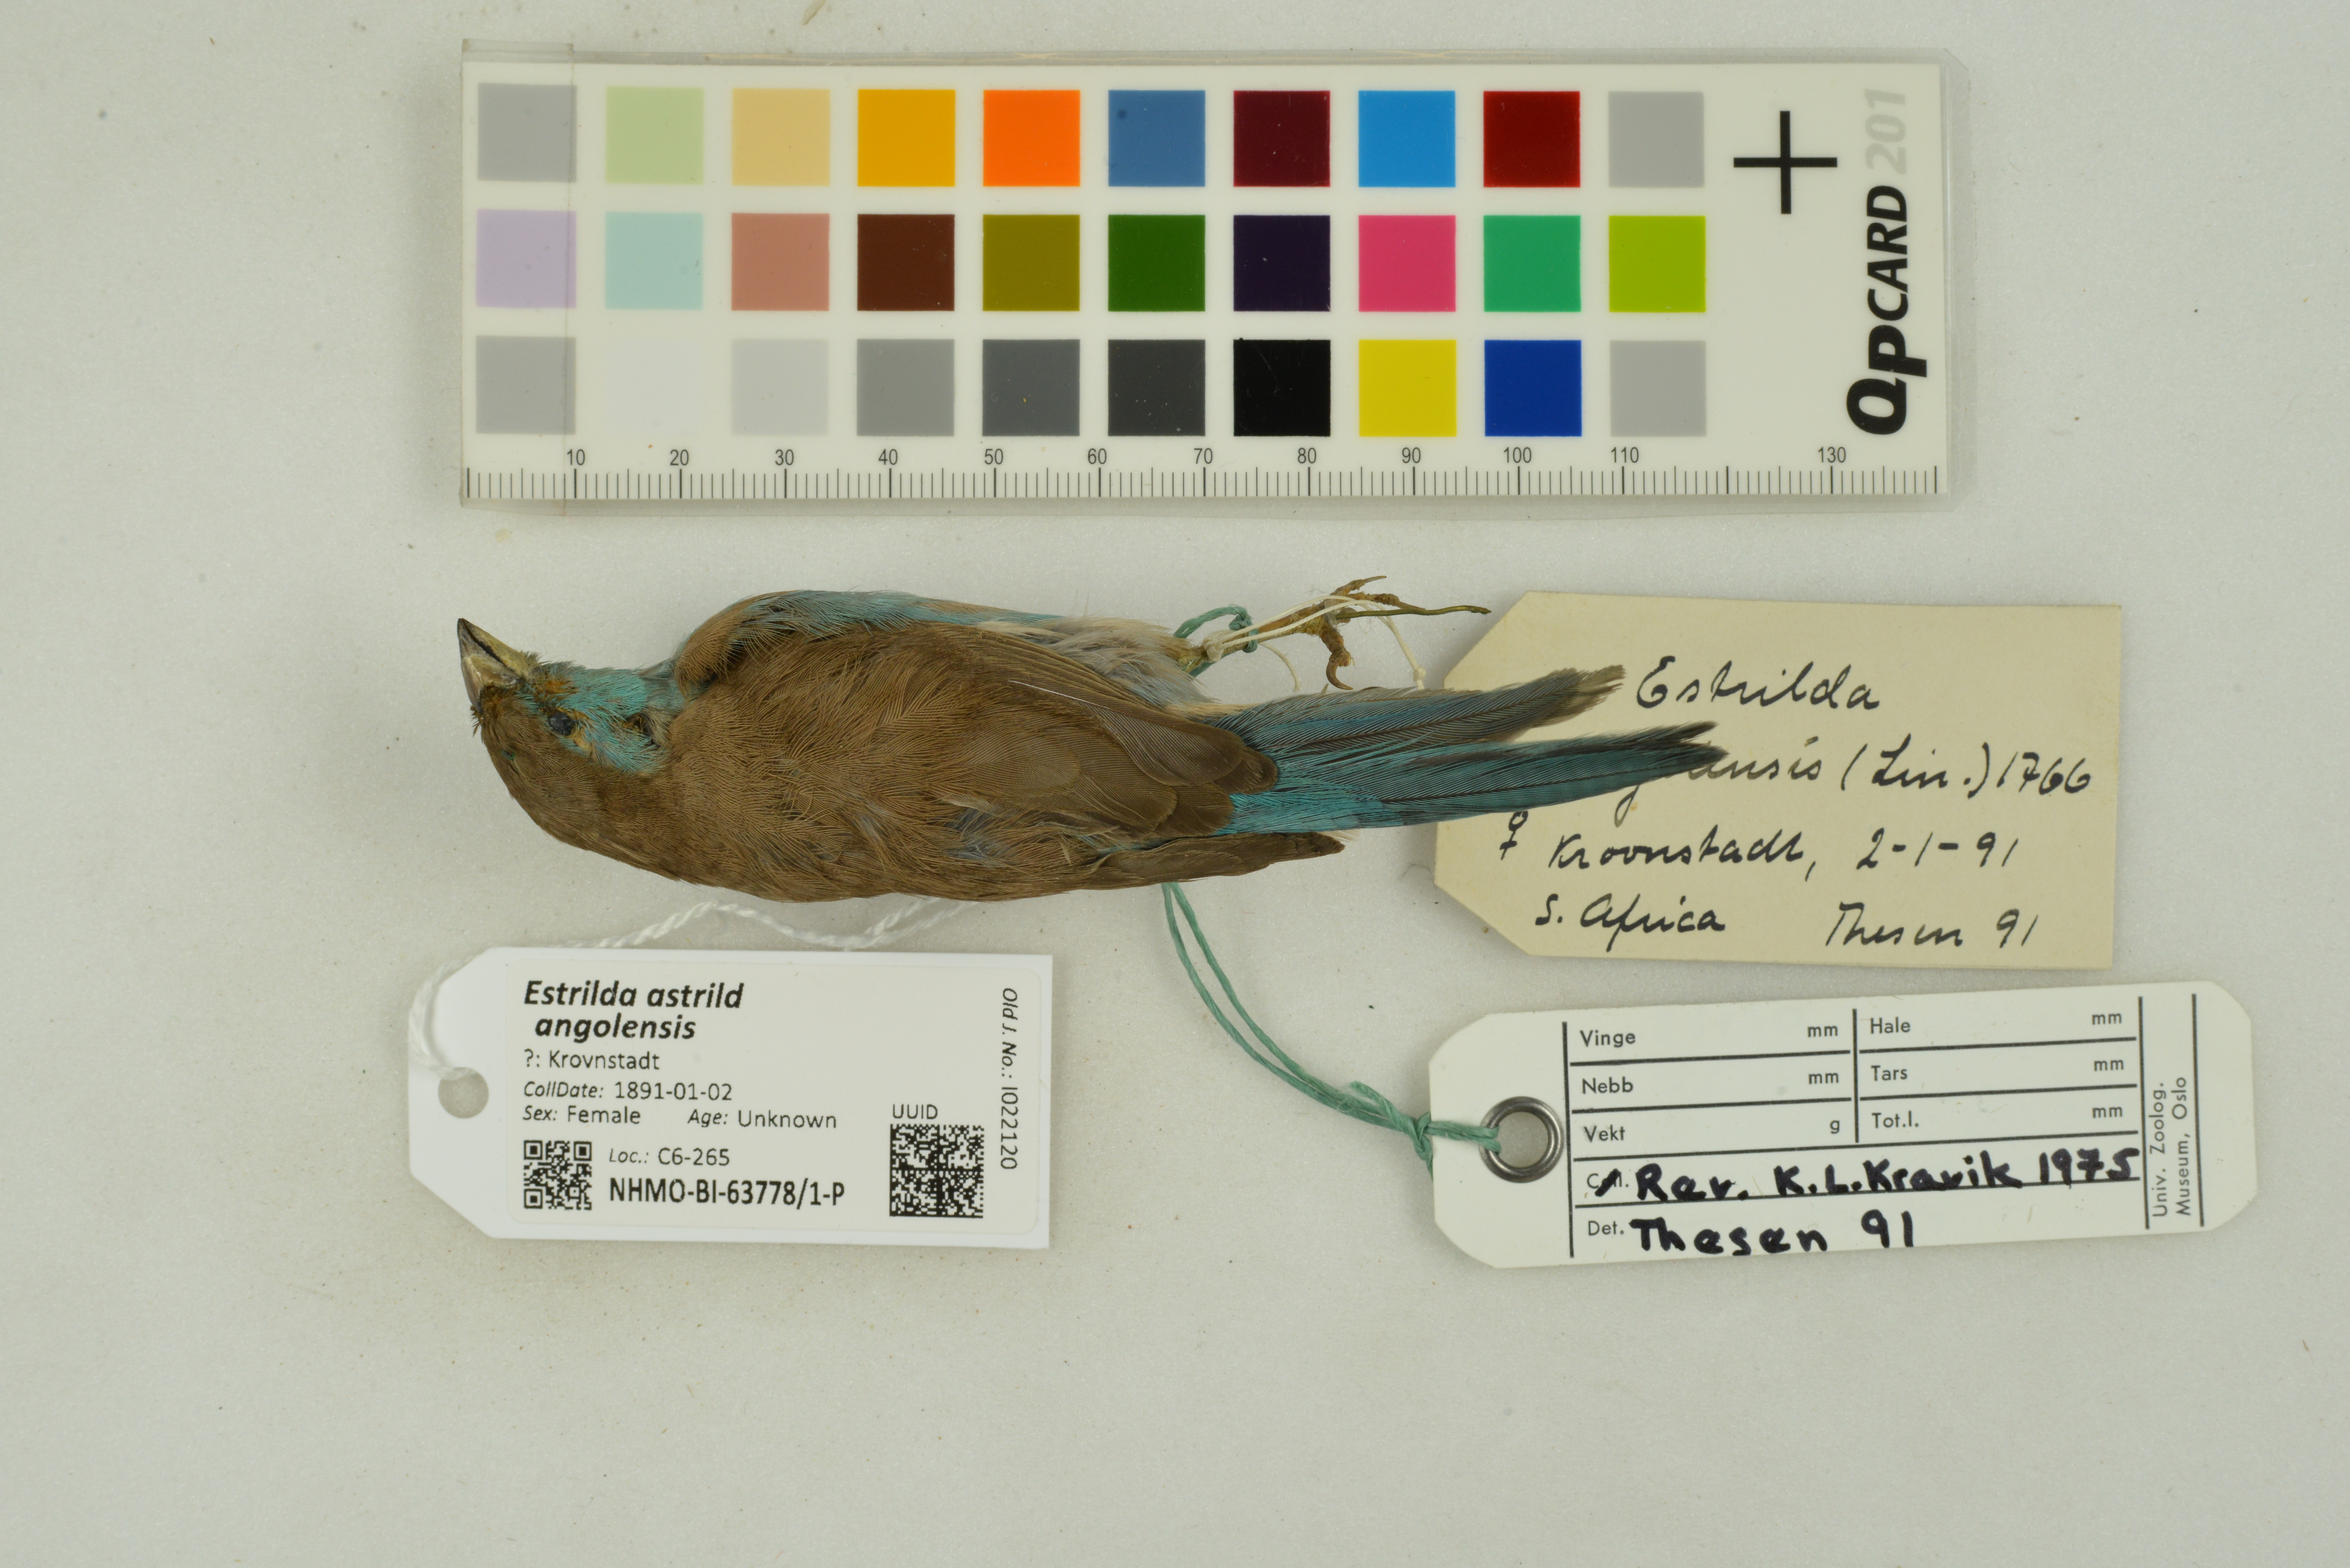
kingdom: Animalia
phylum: Chordata
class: Aves
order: Passeriformes
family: Estrildidae
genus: Estrilda
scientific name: Estrilda astrild
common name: Common waxbill
